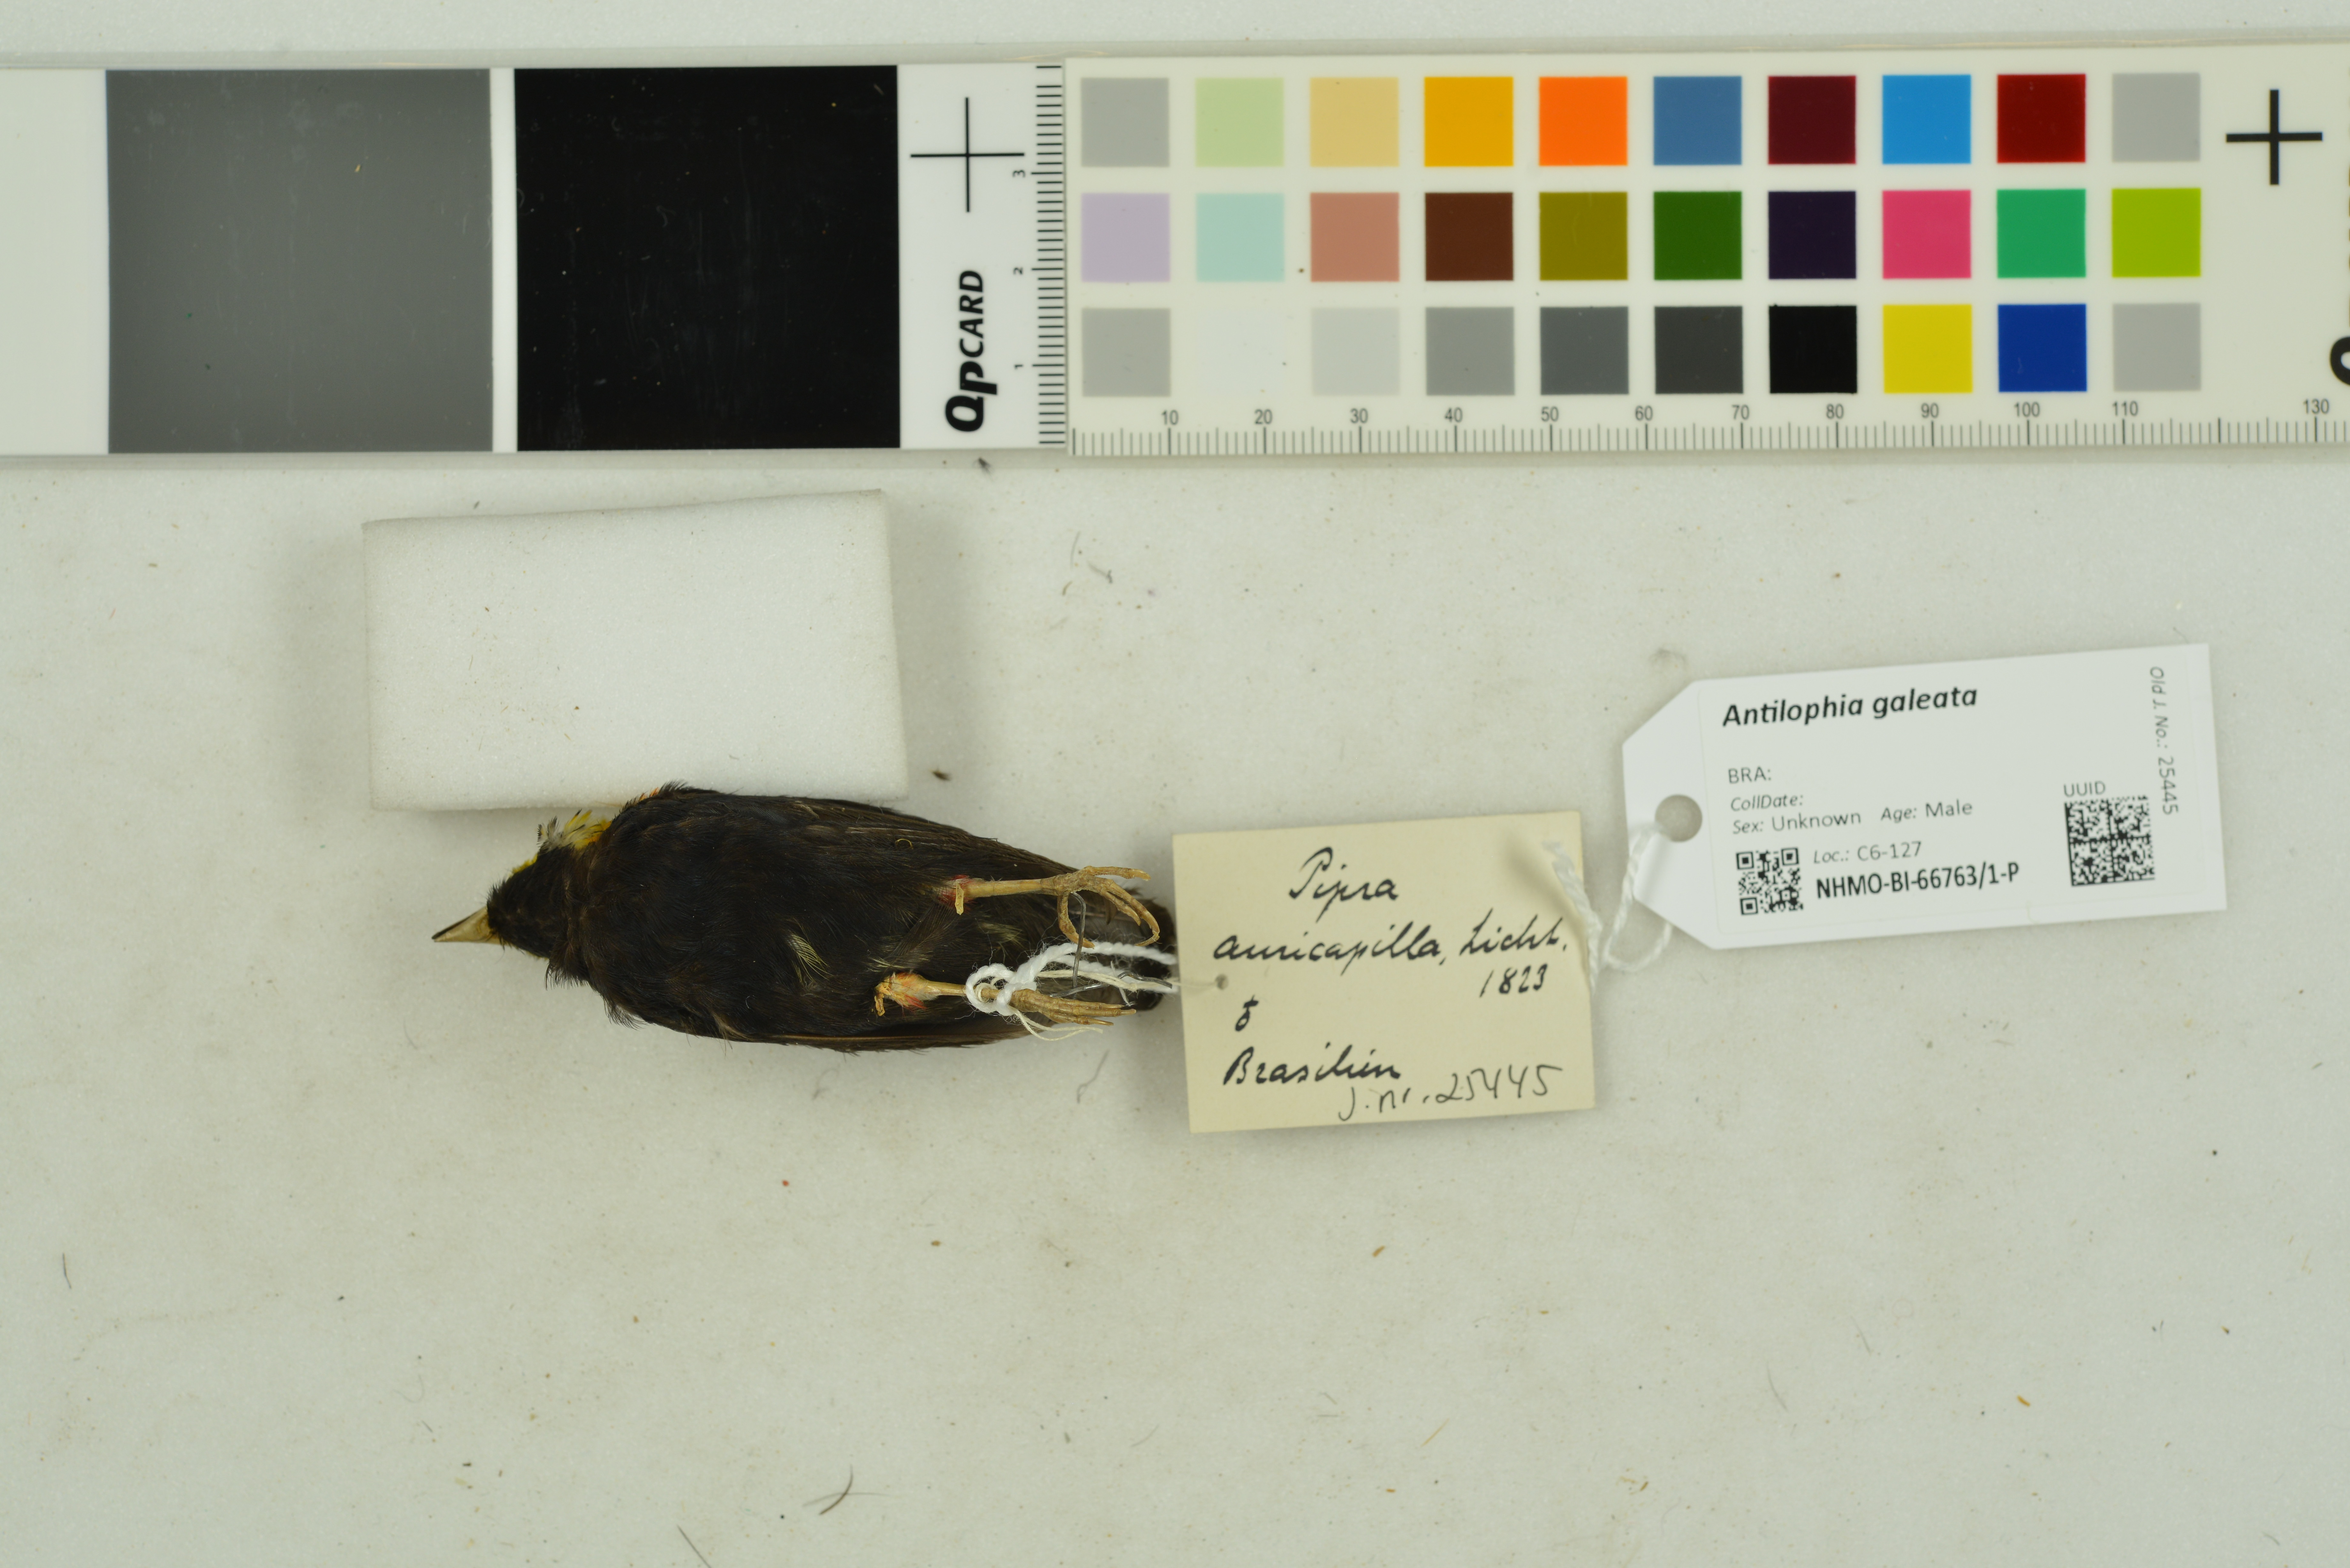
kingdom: Animalia
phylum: Chordata
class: Aves
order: Passeriformes
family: Pipridae
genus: Antilophia
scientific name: Antilophia galeata
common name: Helmeted manakin
